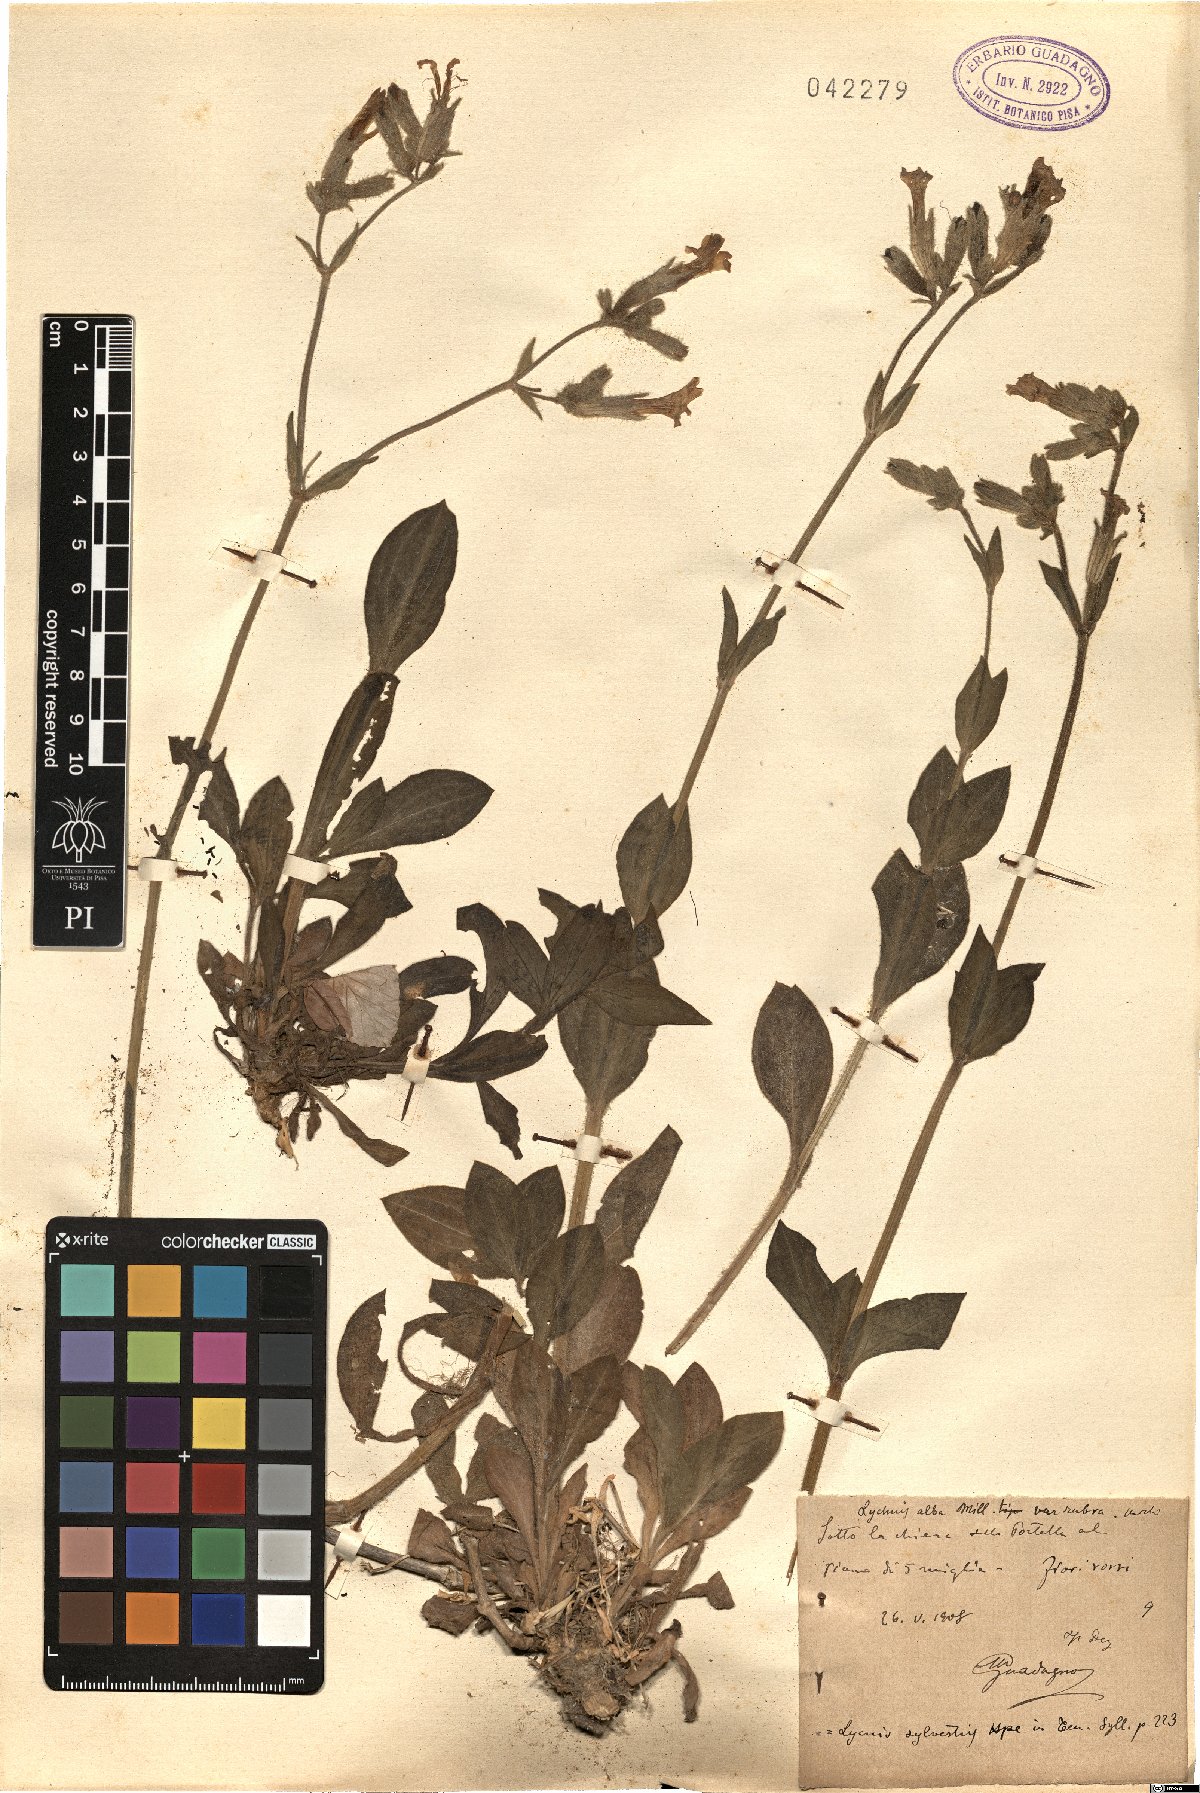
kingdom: Plantae
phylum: Tracheophyta
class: Magnoliopsida
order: Caryophyllales
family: Caryophyllaceae
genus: Silene
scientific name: Silene dioica
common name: Red campion
